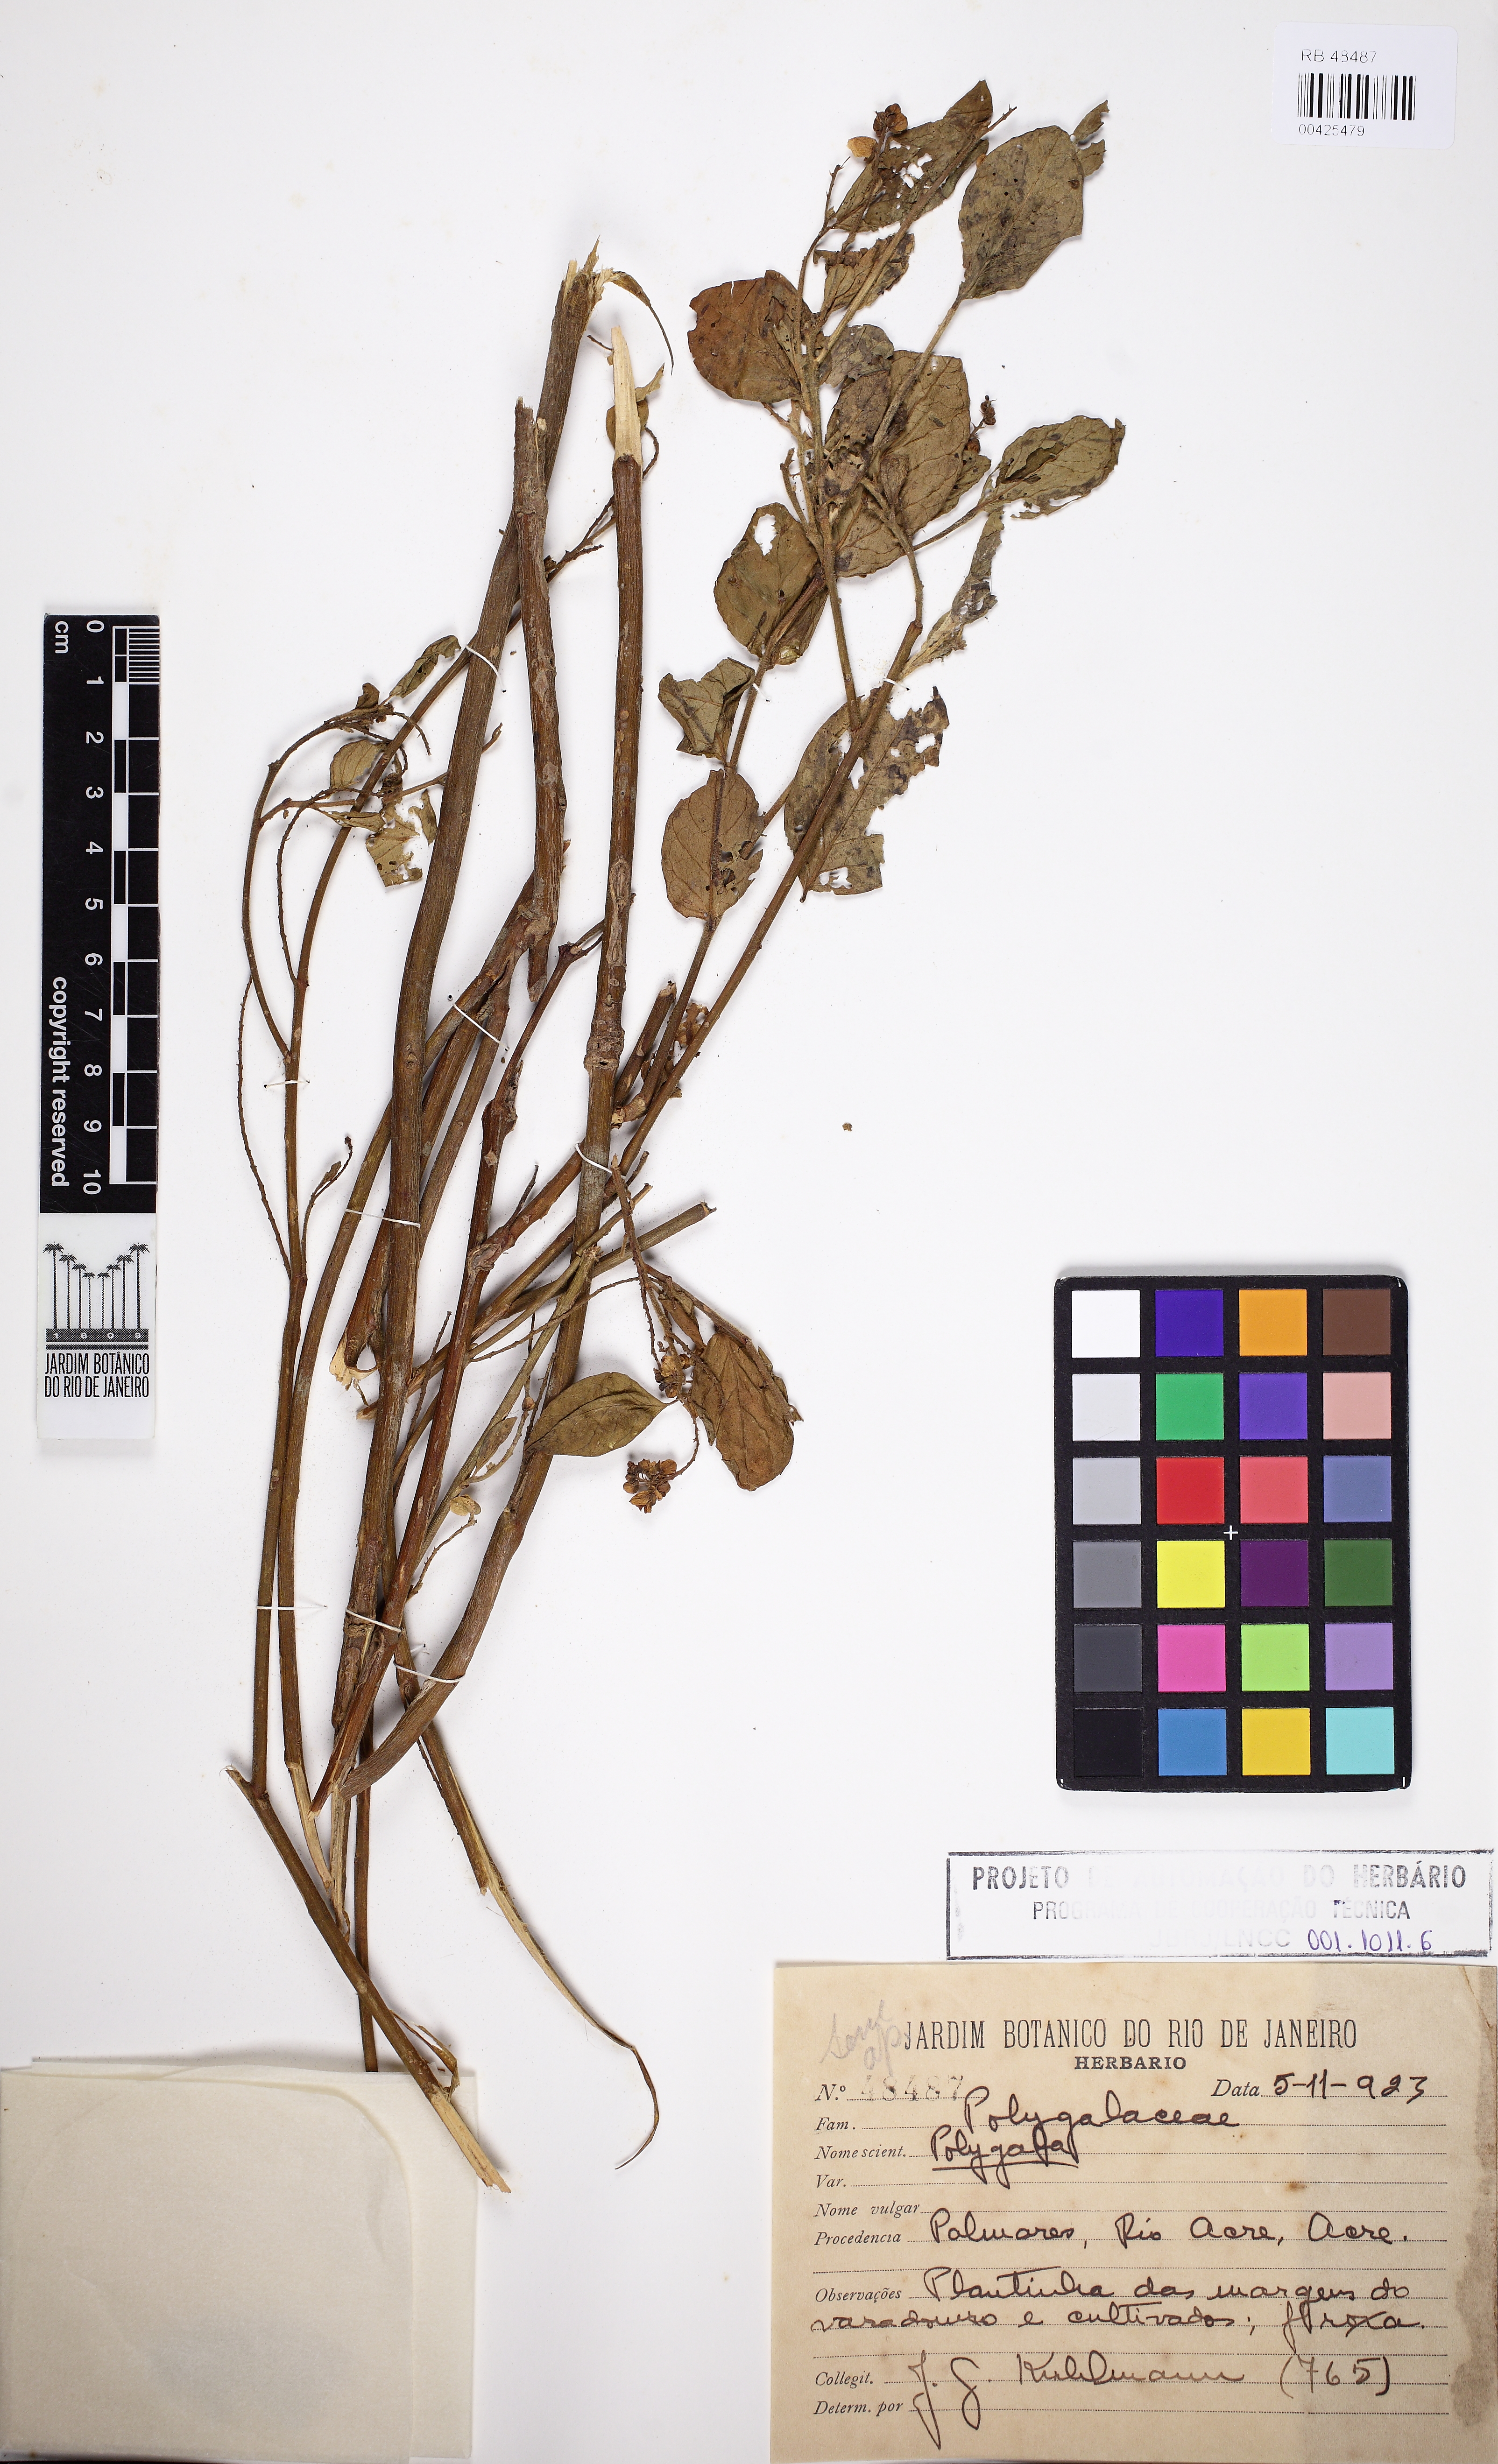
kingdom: Plantae
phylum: Tracheophyta
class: Magnoliopsida
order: Fabales
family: Polygalaceae
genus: Asemeia
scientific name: Asemeia
